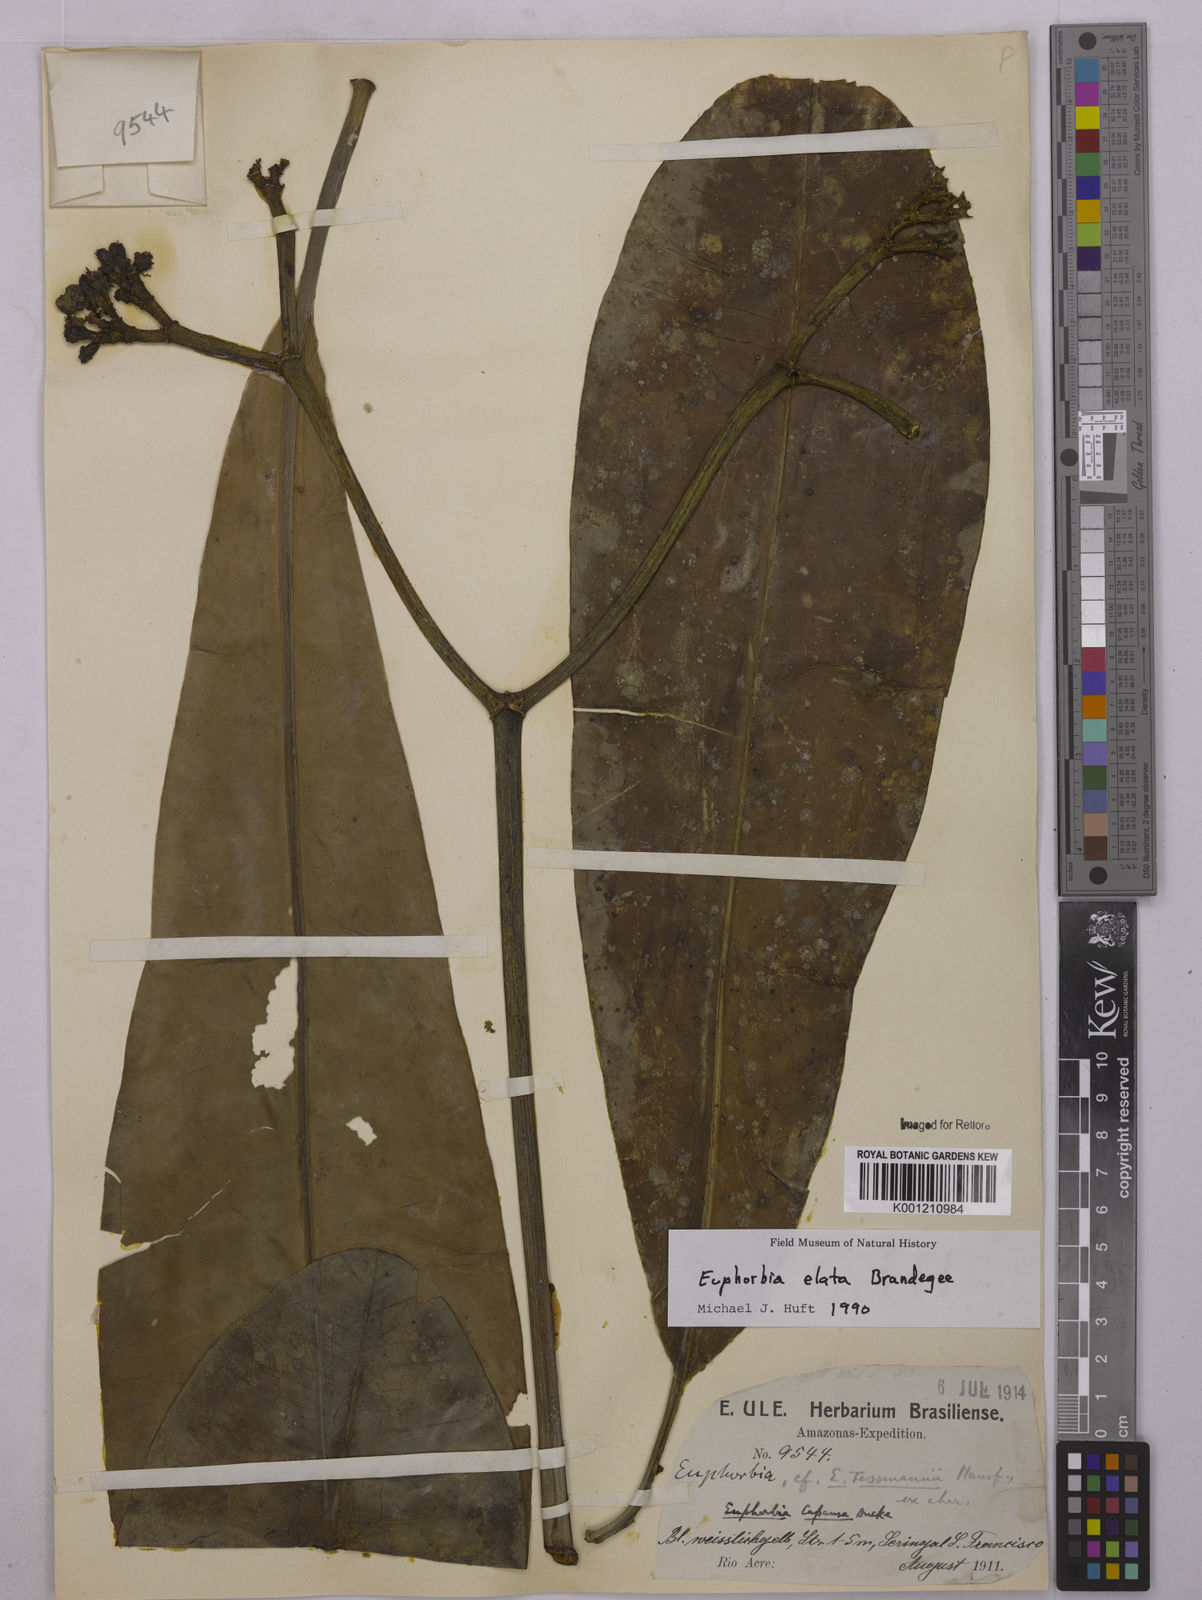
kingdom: Plantae
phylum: Tracheophyta
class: Magnoliopsida
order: Malpighiales
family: Euphorbiaceae
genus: Euphorbia
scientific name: Euphorbia sinclairiana
